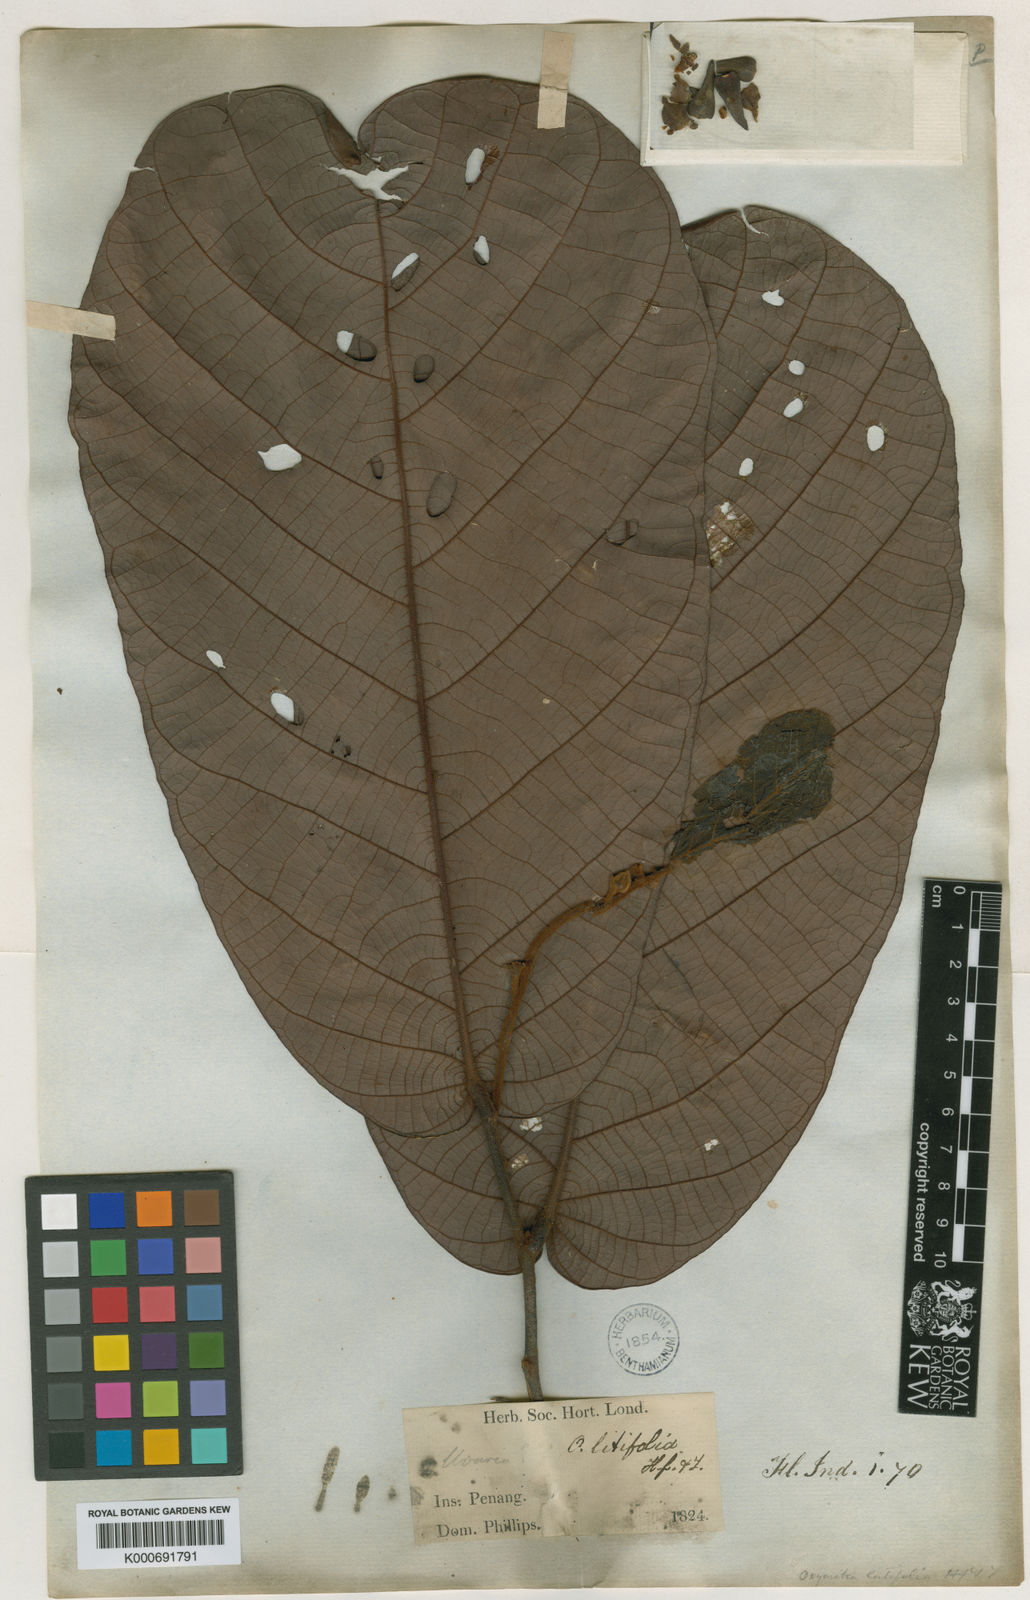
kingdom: Plantae
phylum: Tracheophyta
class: Magnoliopsida
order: Magnoliales
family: Annonaceae
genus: Friesodielsia
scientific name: Friesodielsia latifolia
